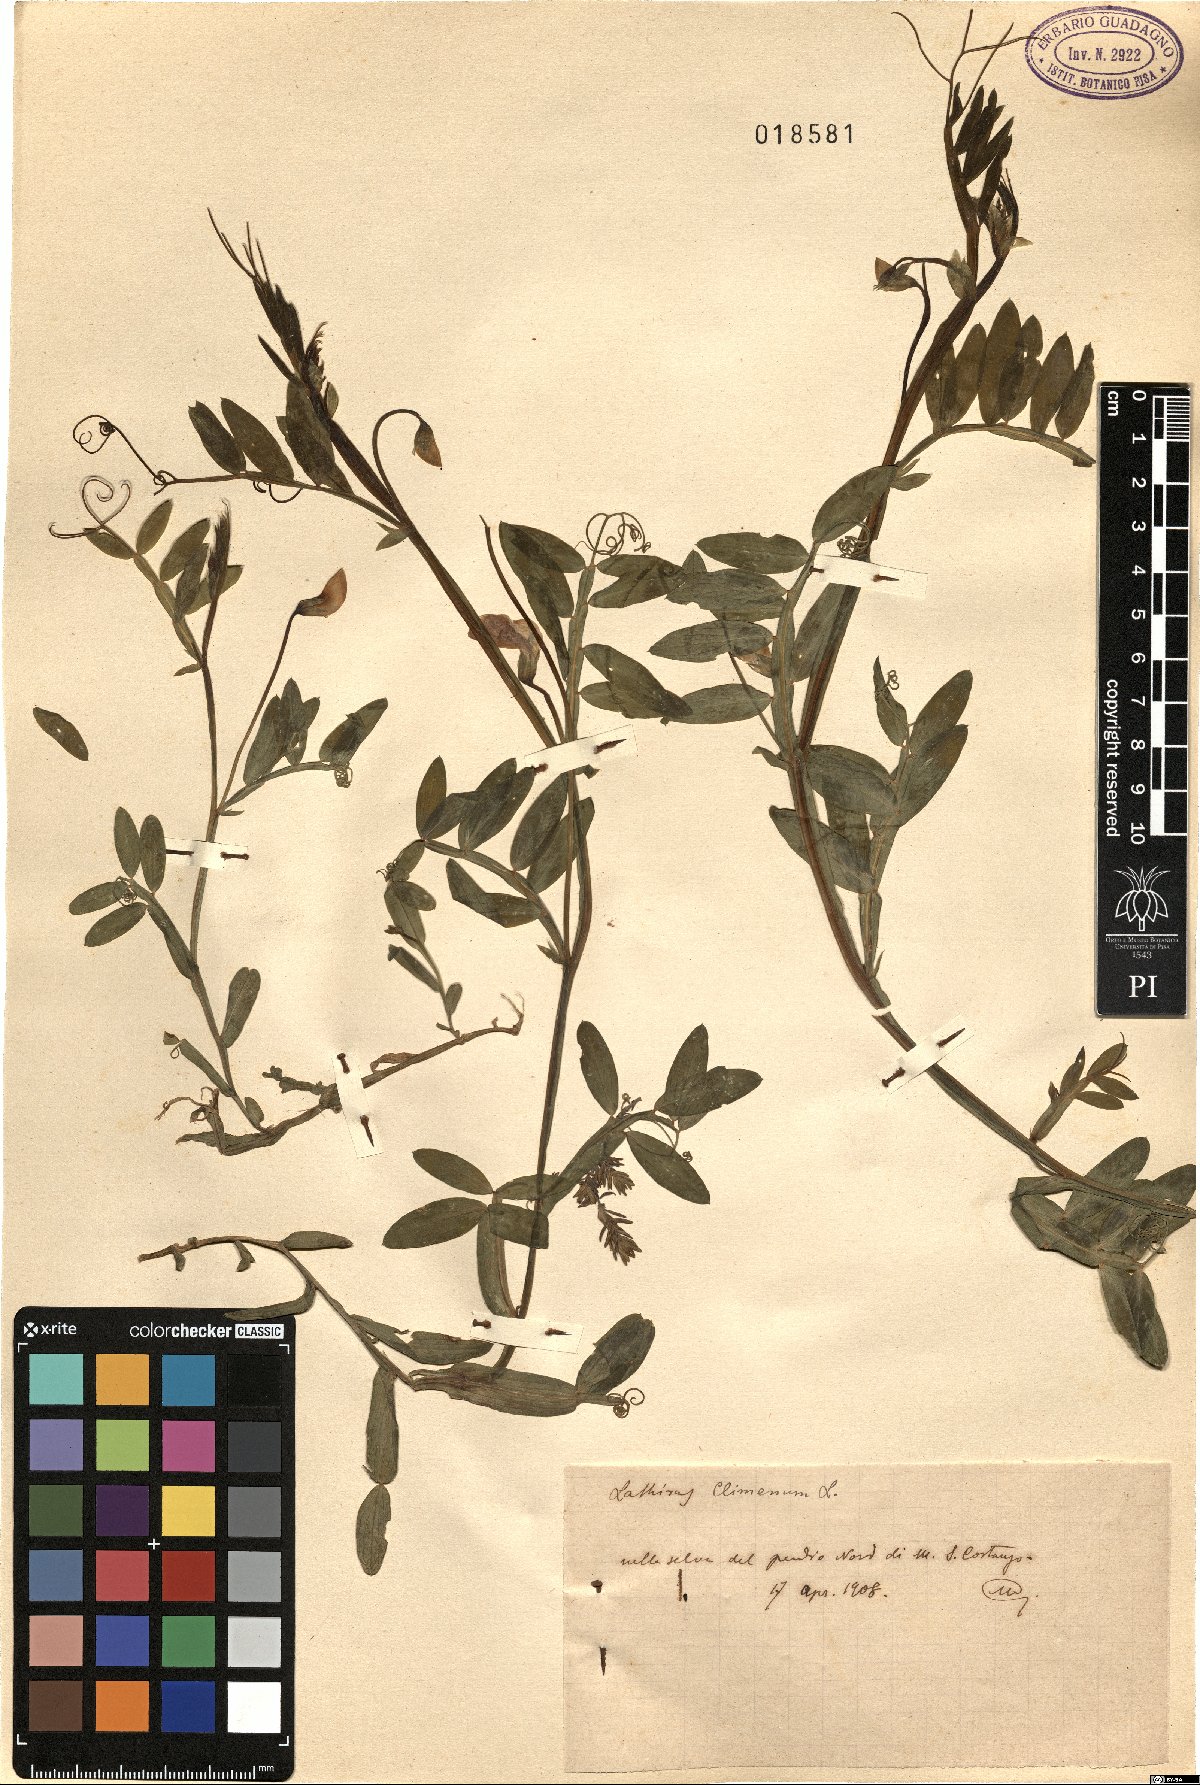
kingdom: Plantae
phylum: Tracheophyta
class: Magnoliopsida
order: Fabales
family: Fabaceae
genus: Lathyrus
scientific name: Lathyrus clymenum
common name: Spanish vetchling
